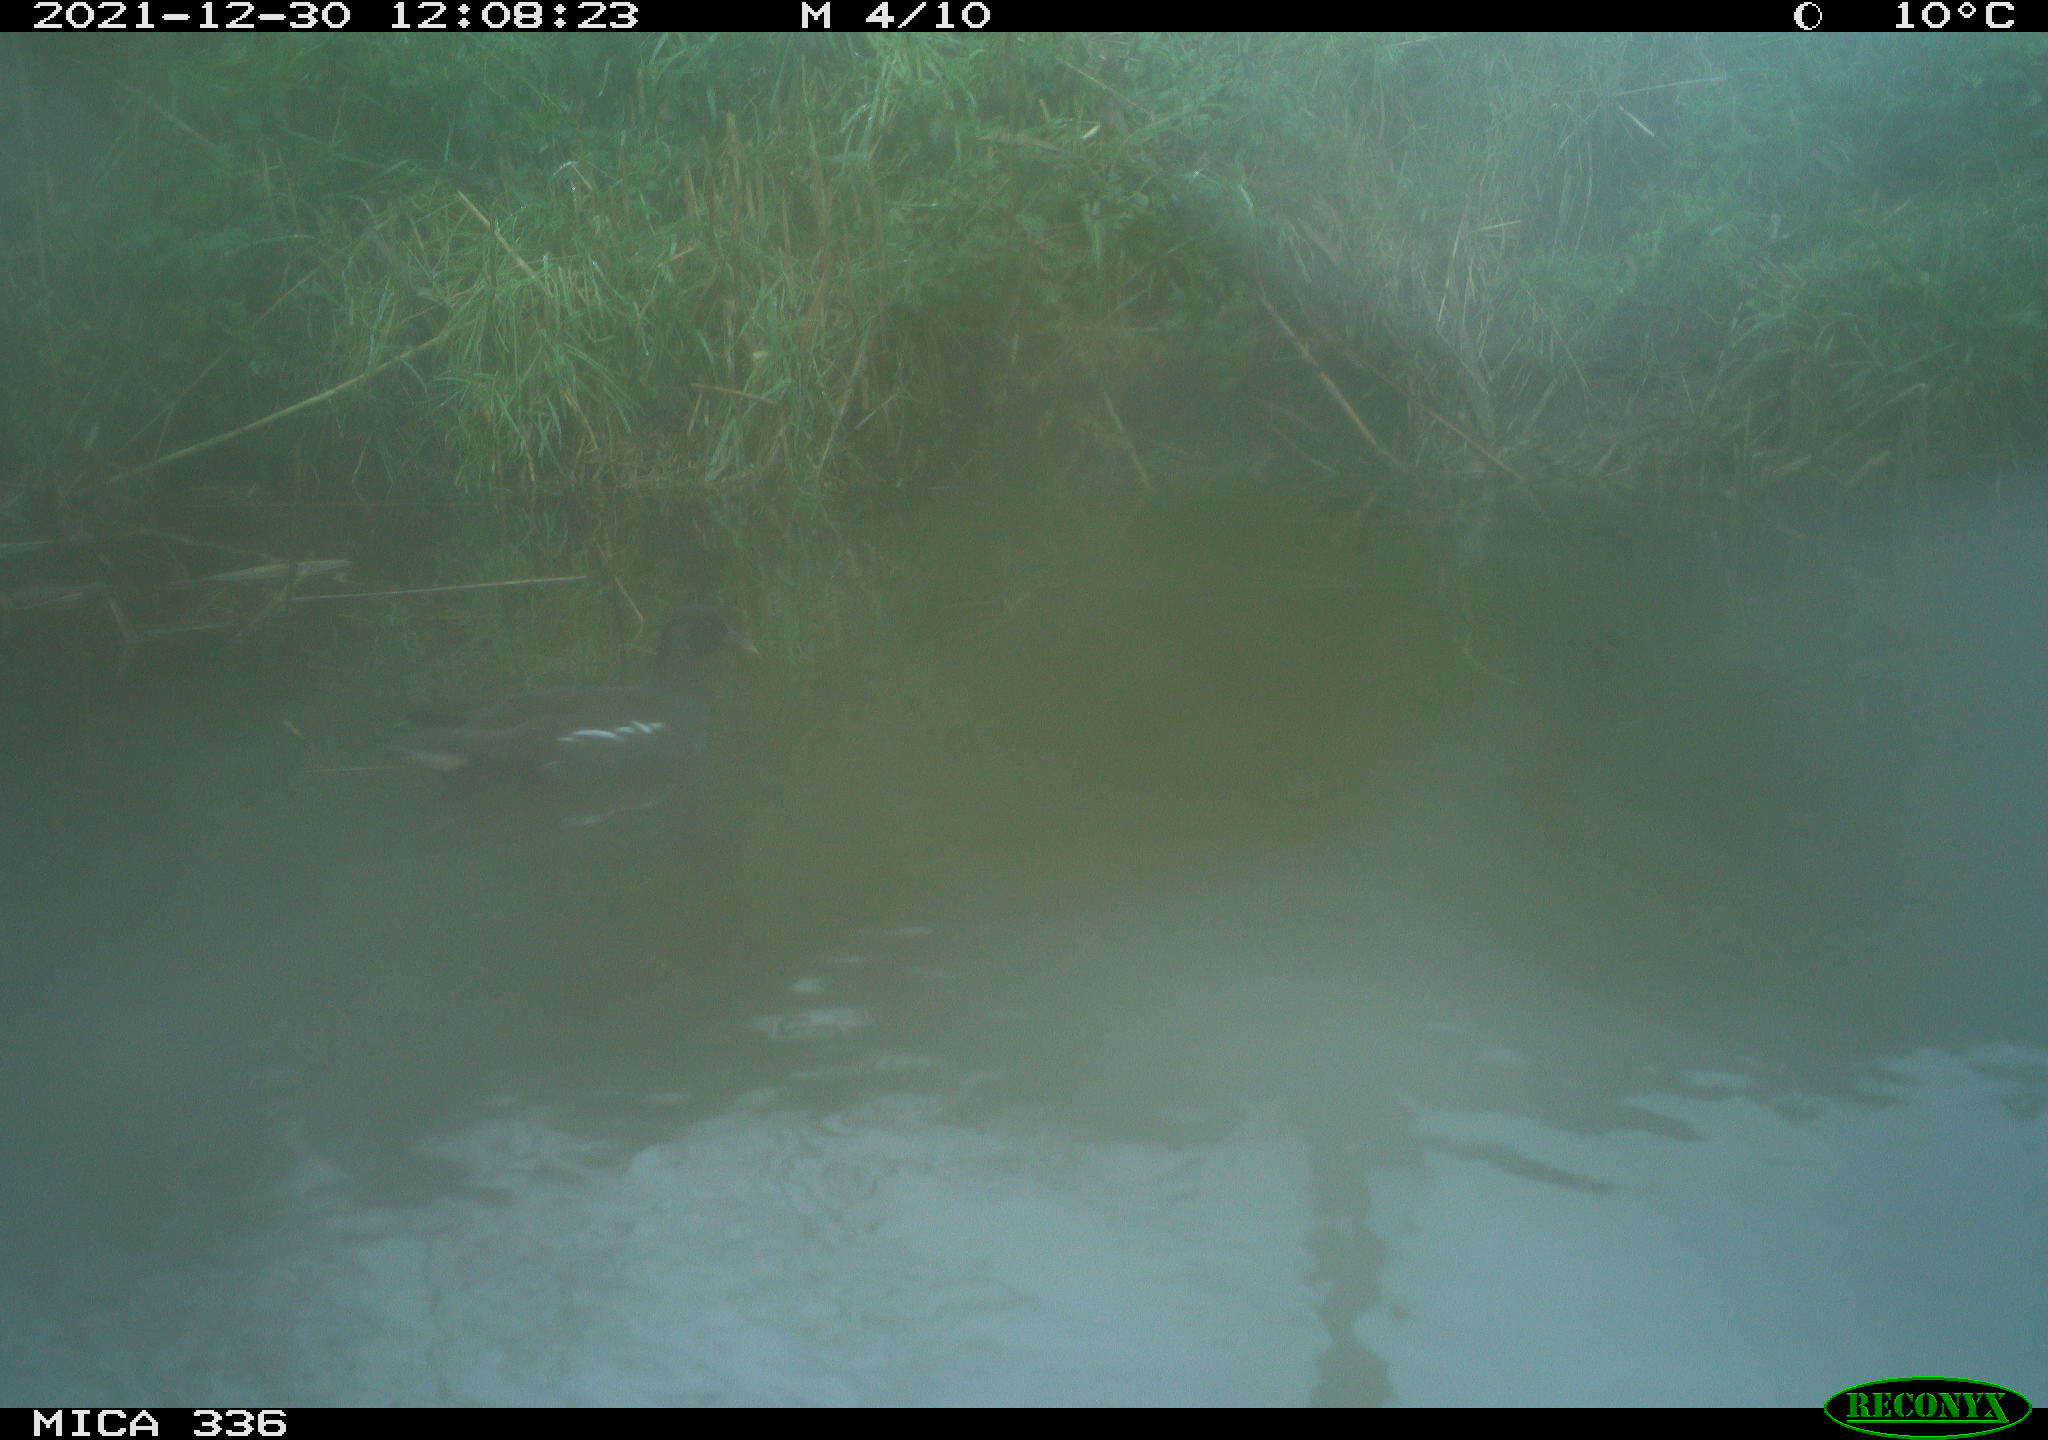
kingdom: Animalia
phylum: Chordata
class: Aves
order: Gruiformes
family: Rallidae
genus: Gallinula
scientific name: Gallinula chloropus
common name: Common moorhen
